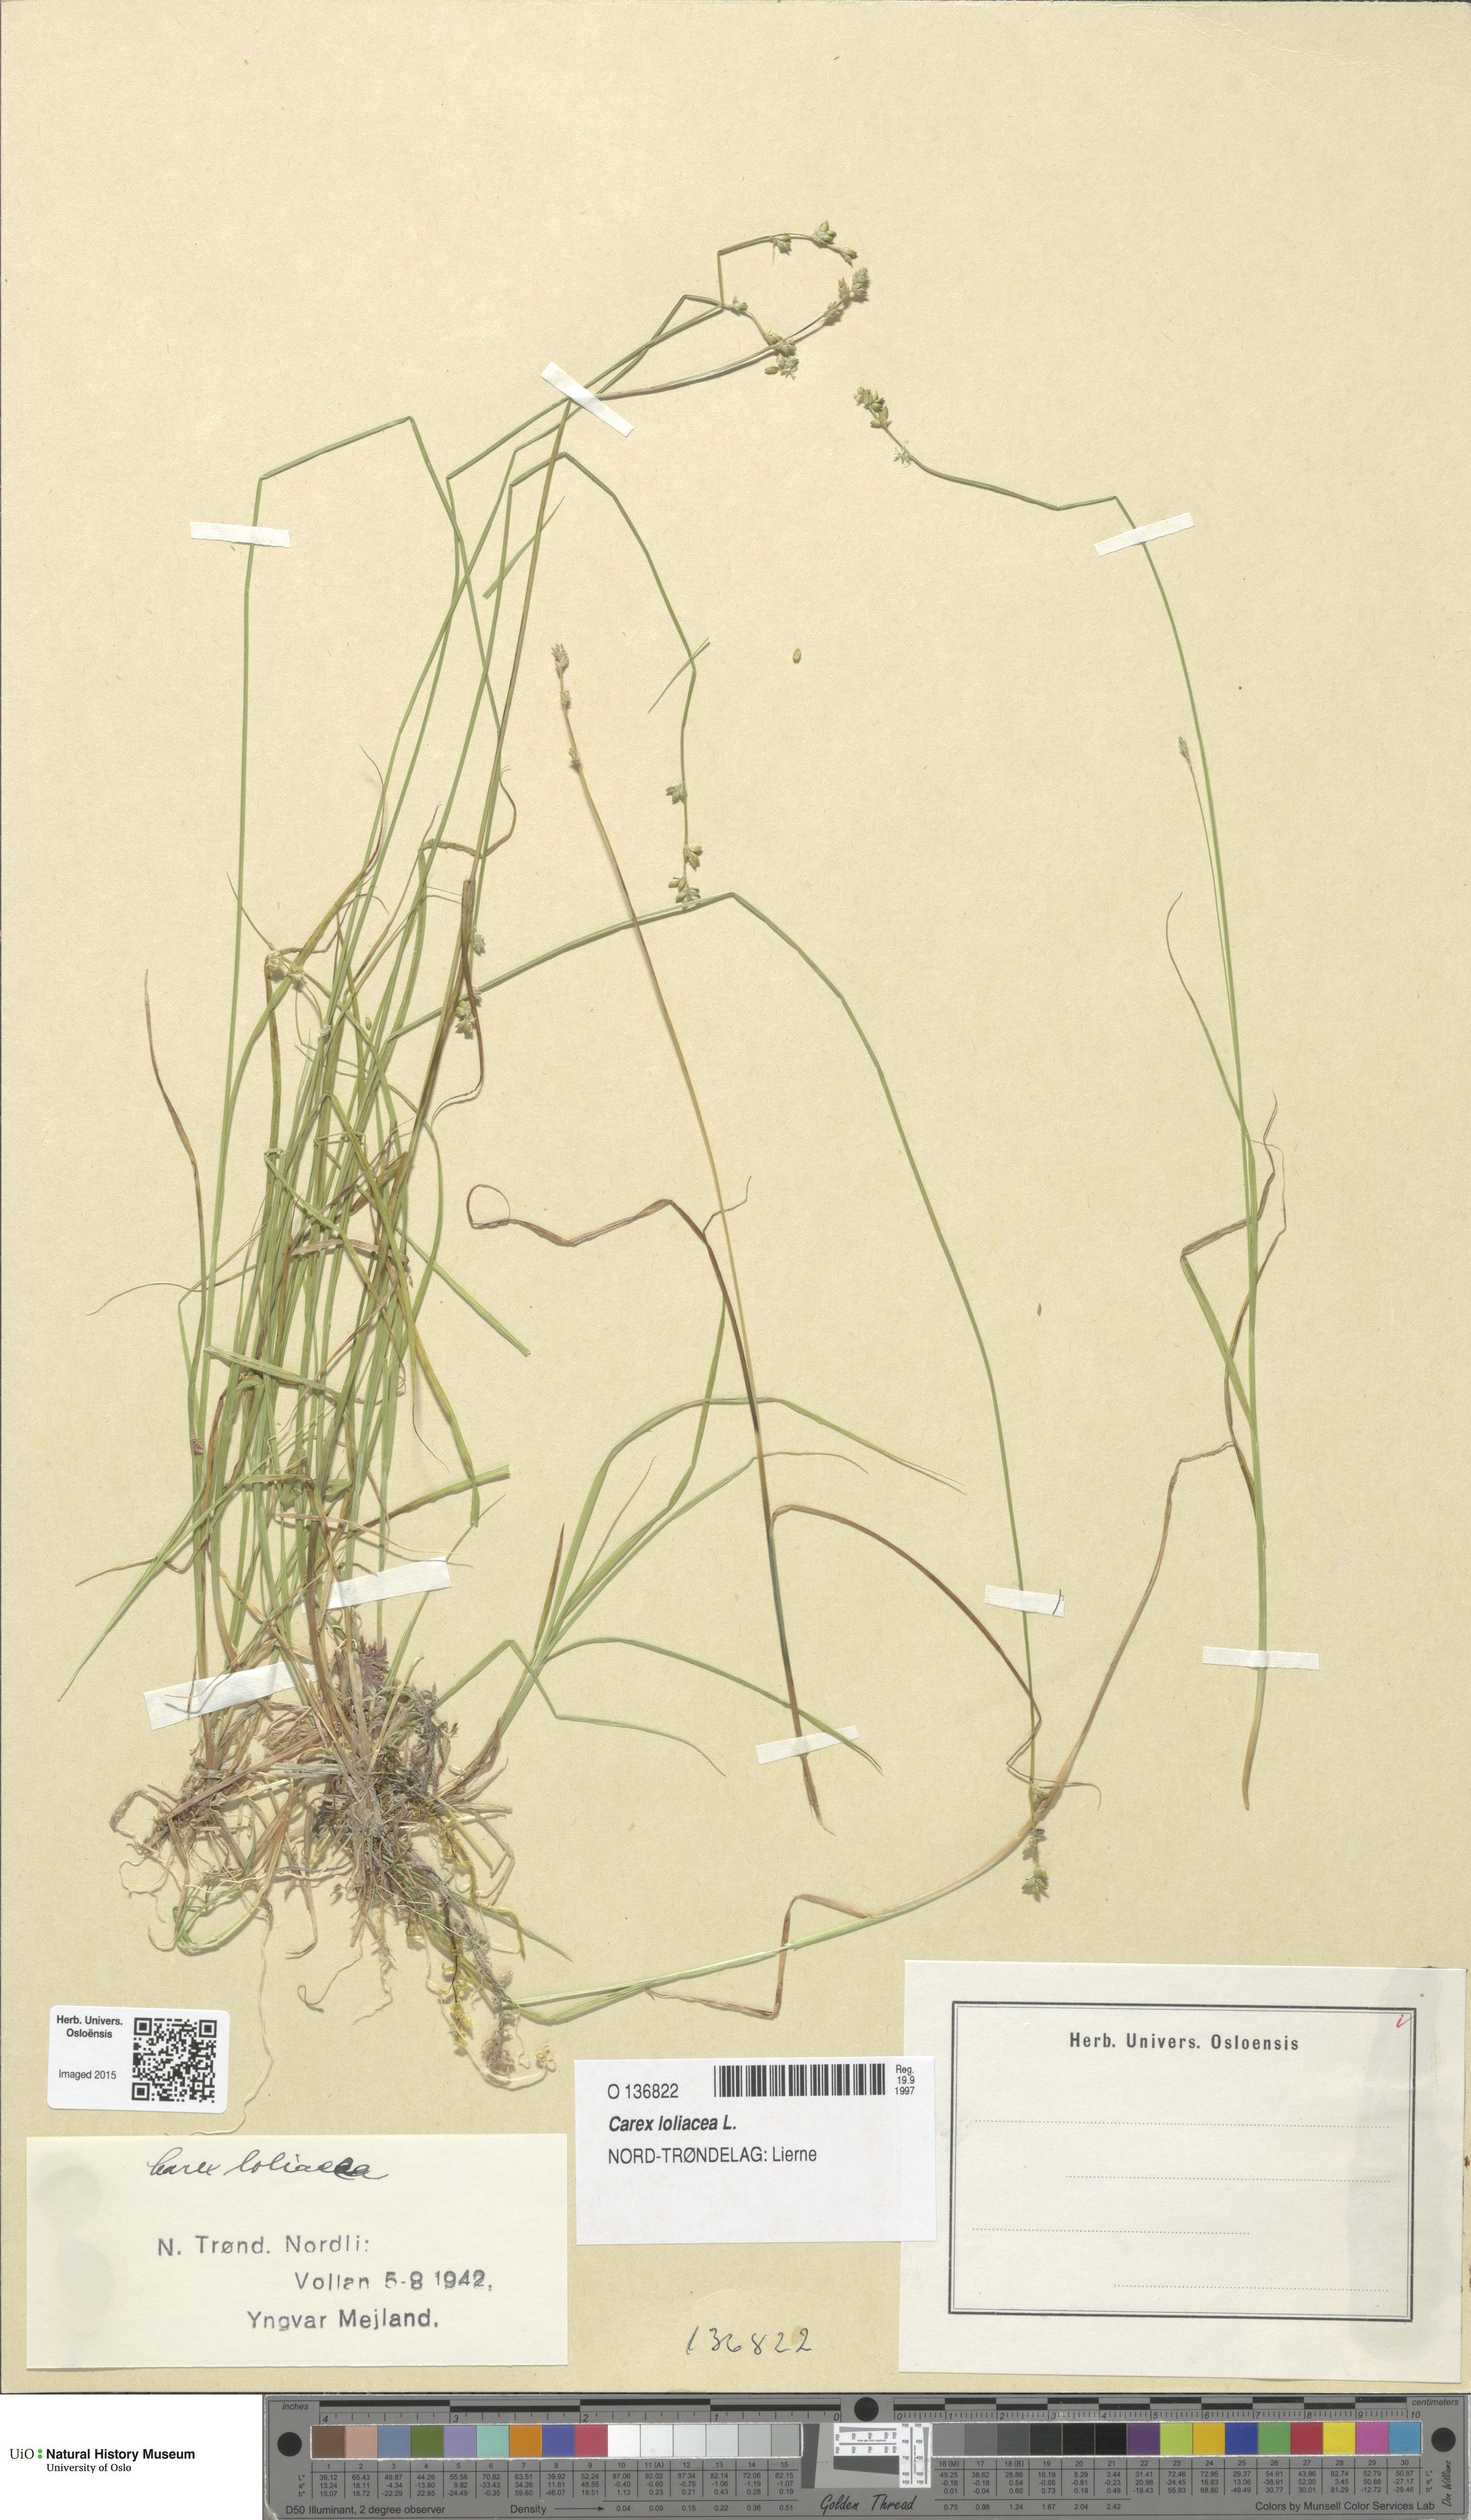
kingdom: Plantae
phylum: Tracheophyta
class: Liliopsida
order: Poales
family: Cyperaceae
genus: Carex
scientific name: Carex loliacea
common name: Ryegrass sedge
